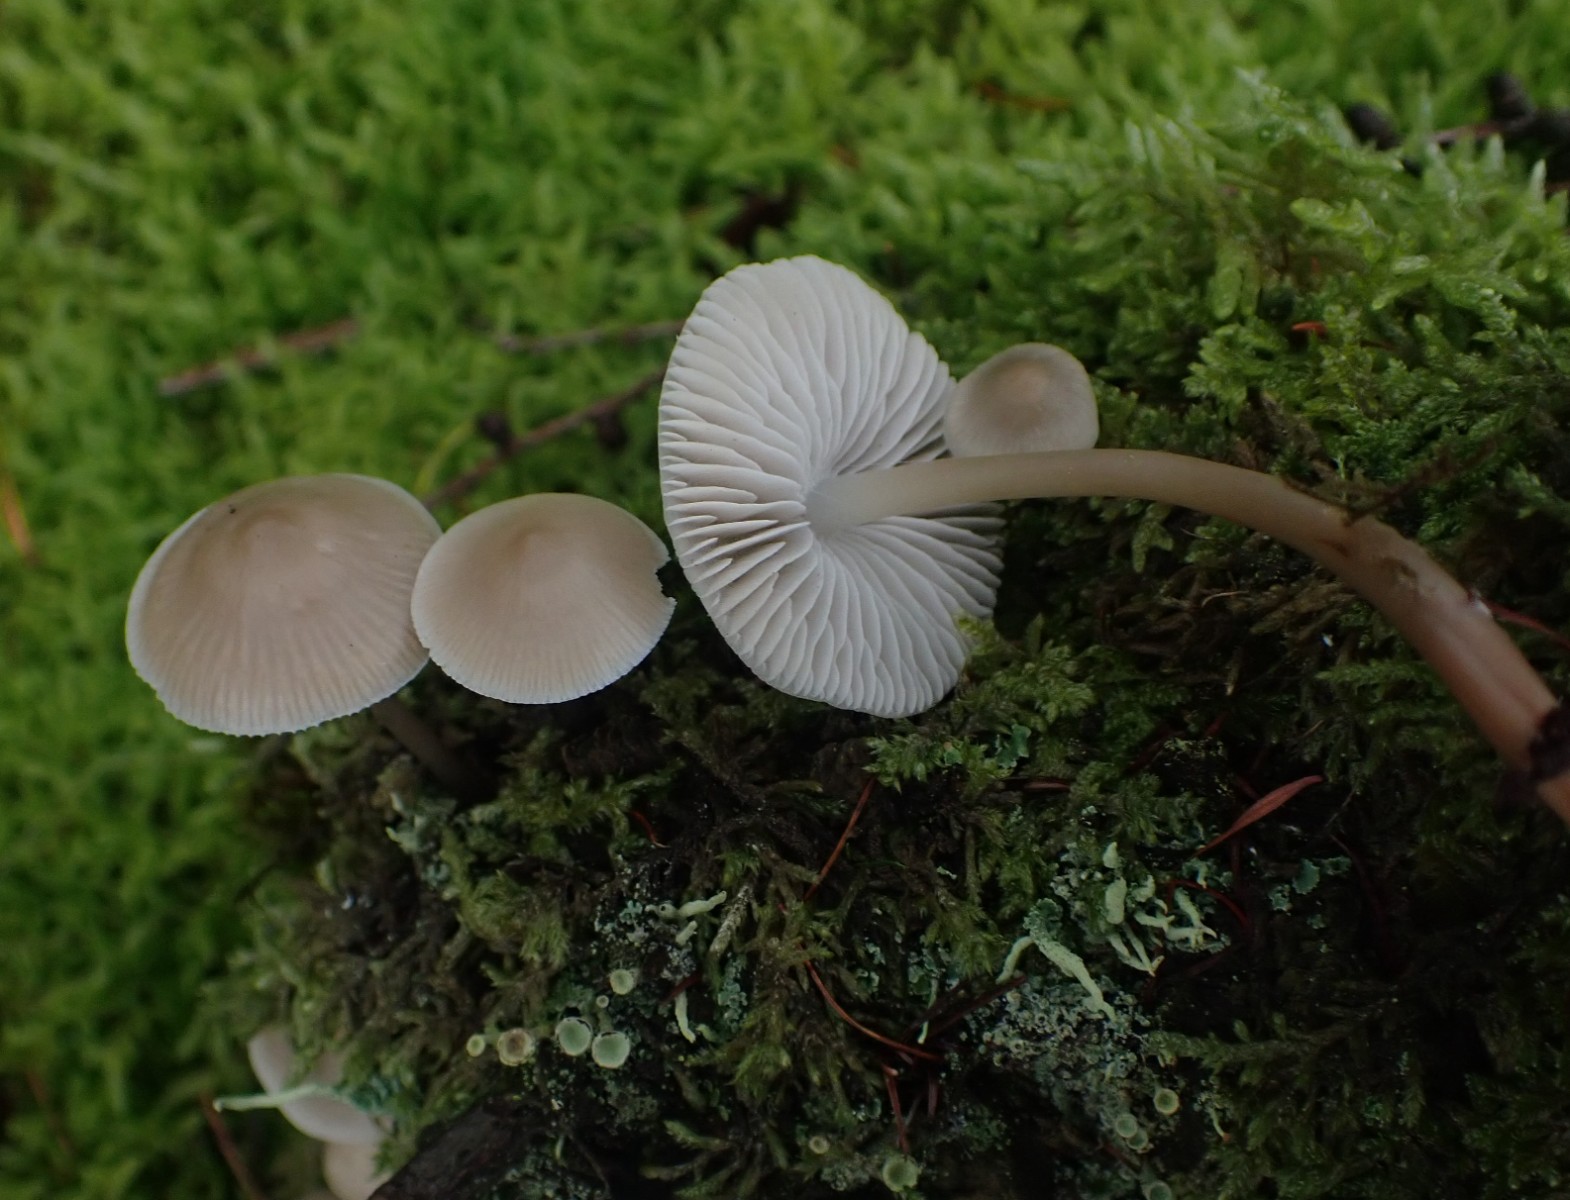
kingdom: Fungi
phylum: Basidiomycota
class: Agaricomycetes
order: Agaricales
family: Mycenaceae
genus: Mycena
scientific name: Mycena galericulata
